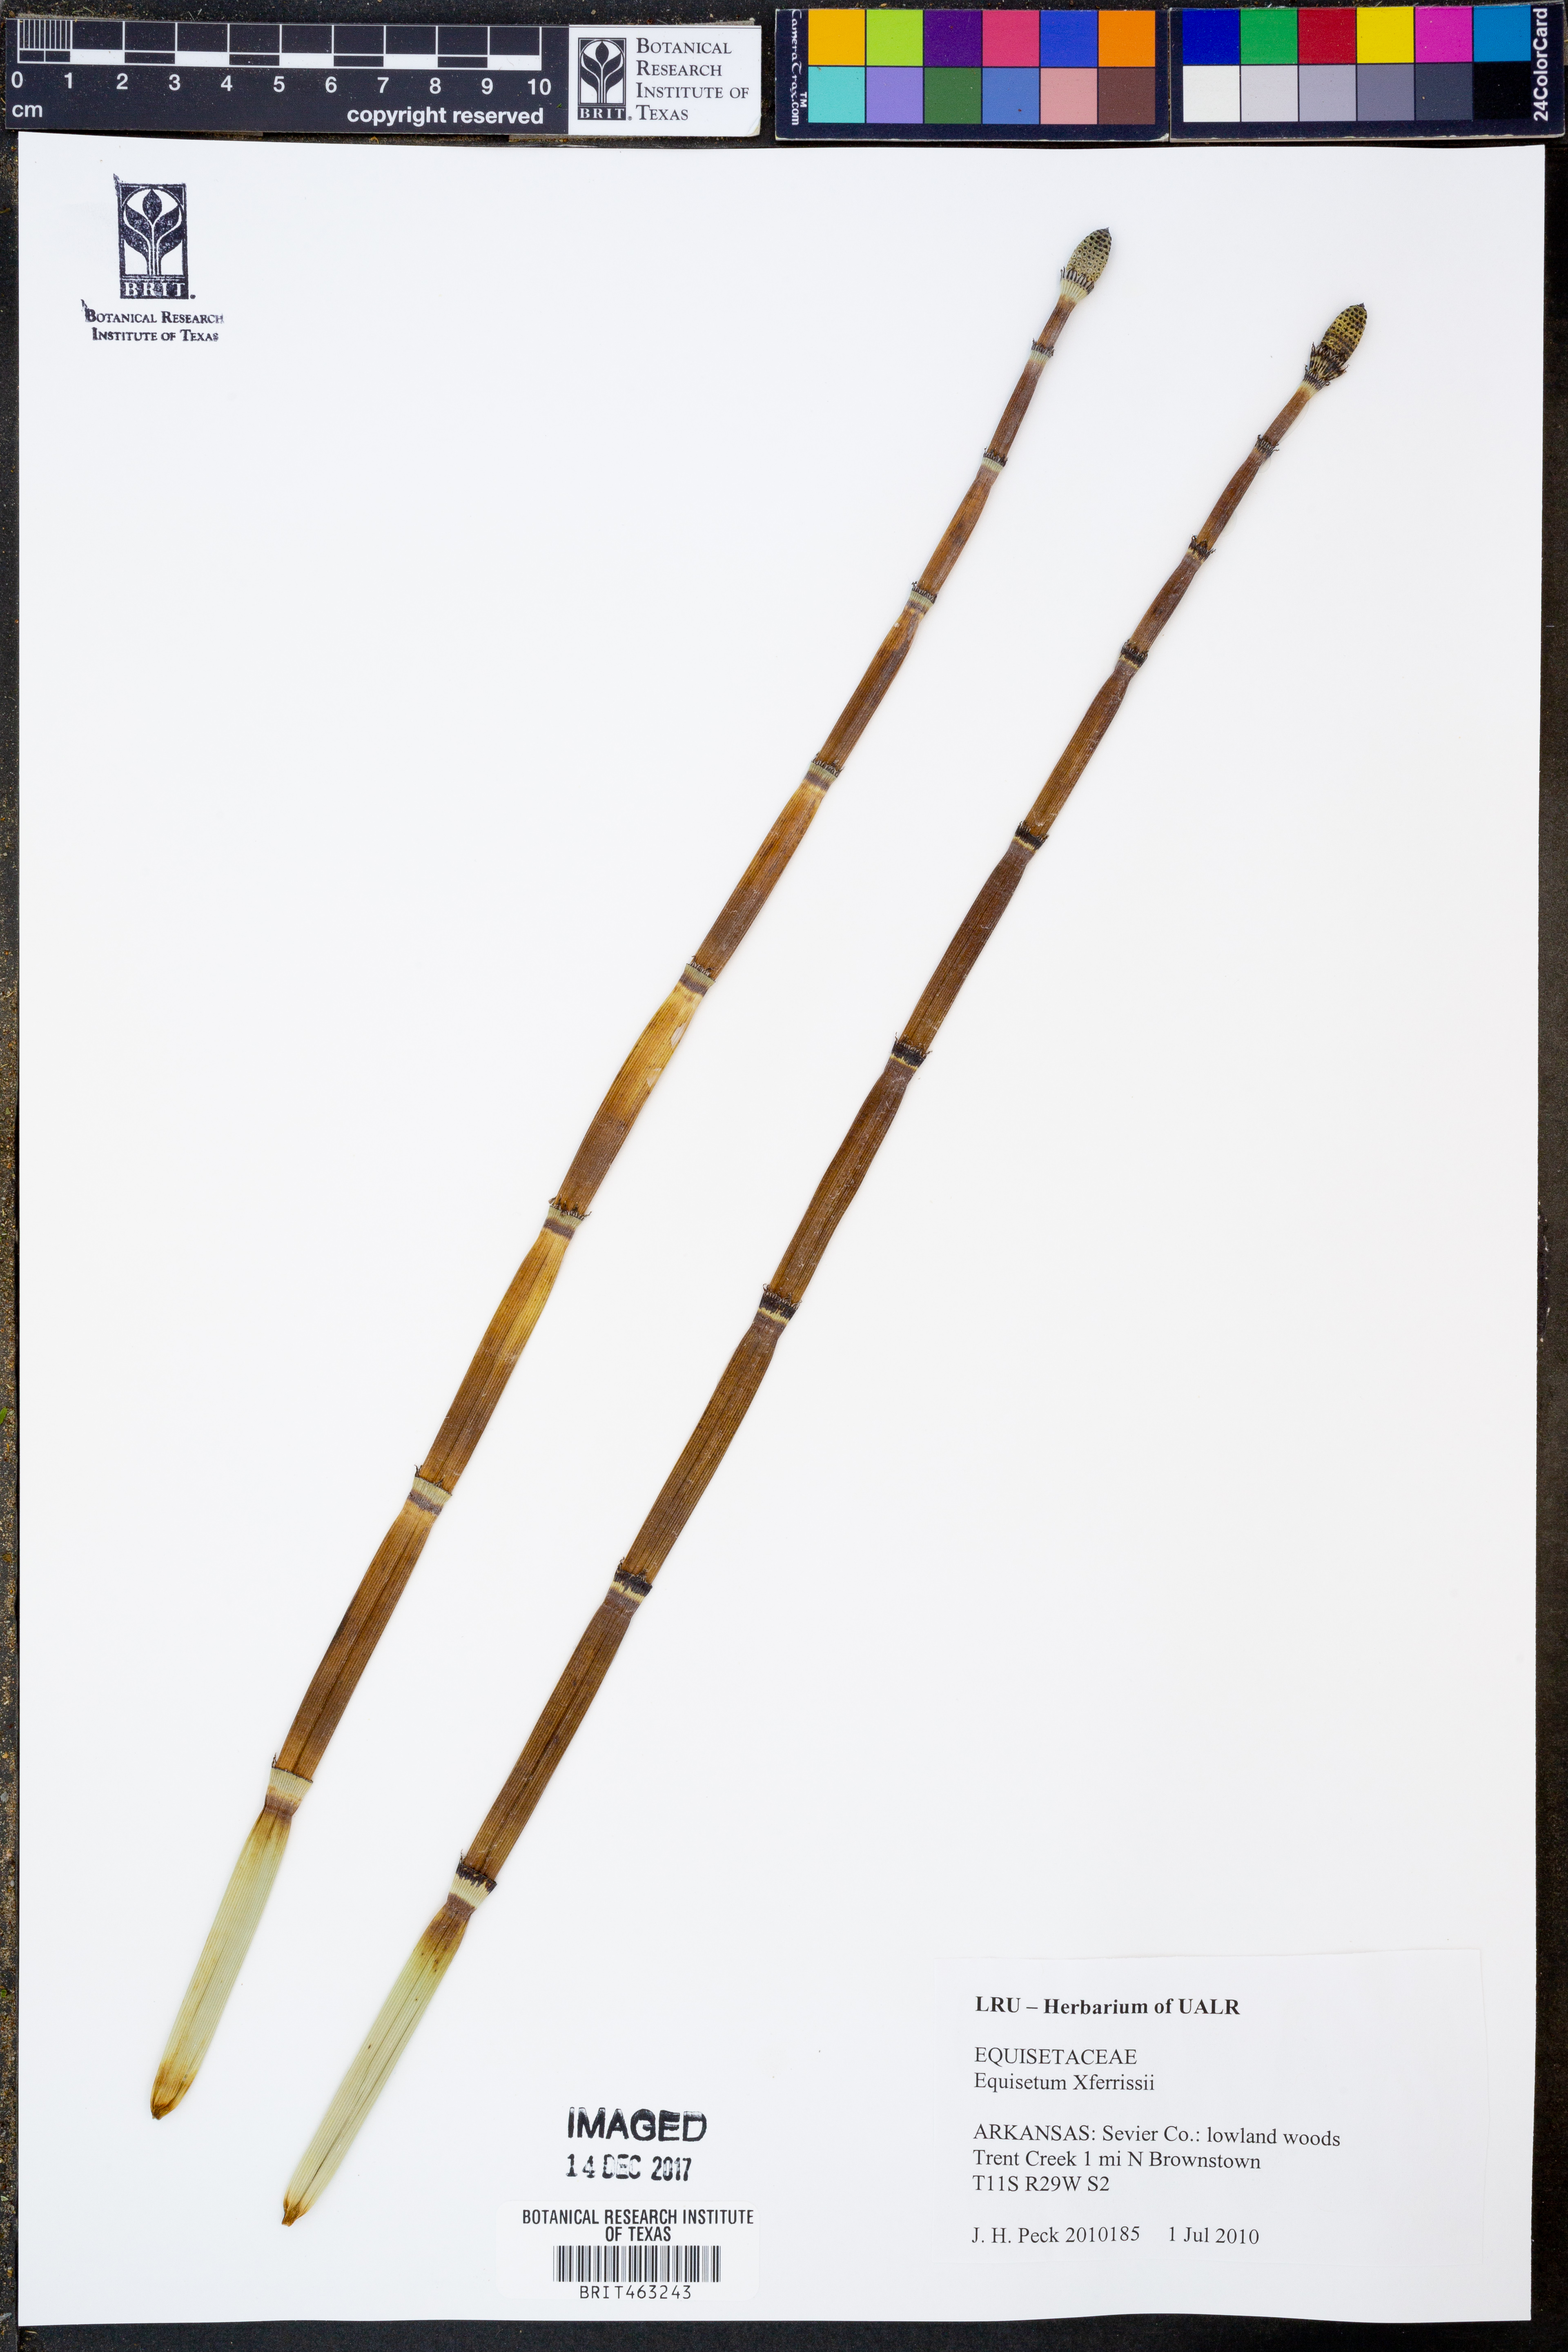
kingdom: Plantae
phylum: Tracheophyta
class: Polypodiopsida
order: Equisetales
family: Equisetaceae
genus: Equisetum
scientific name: Equisetum ferrissii
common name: Ferriss' horsetail
